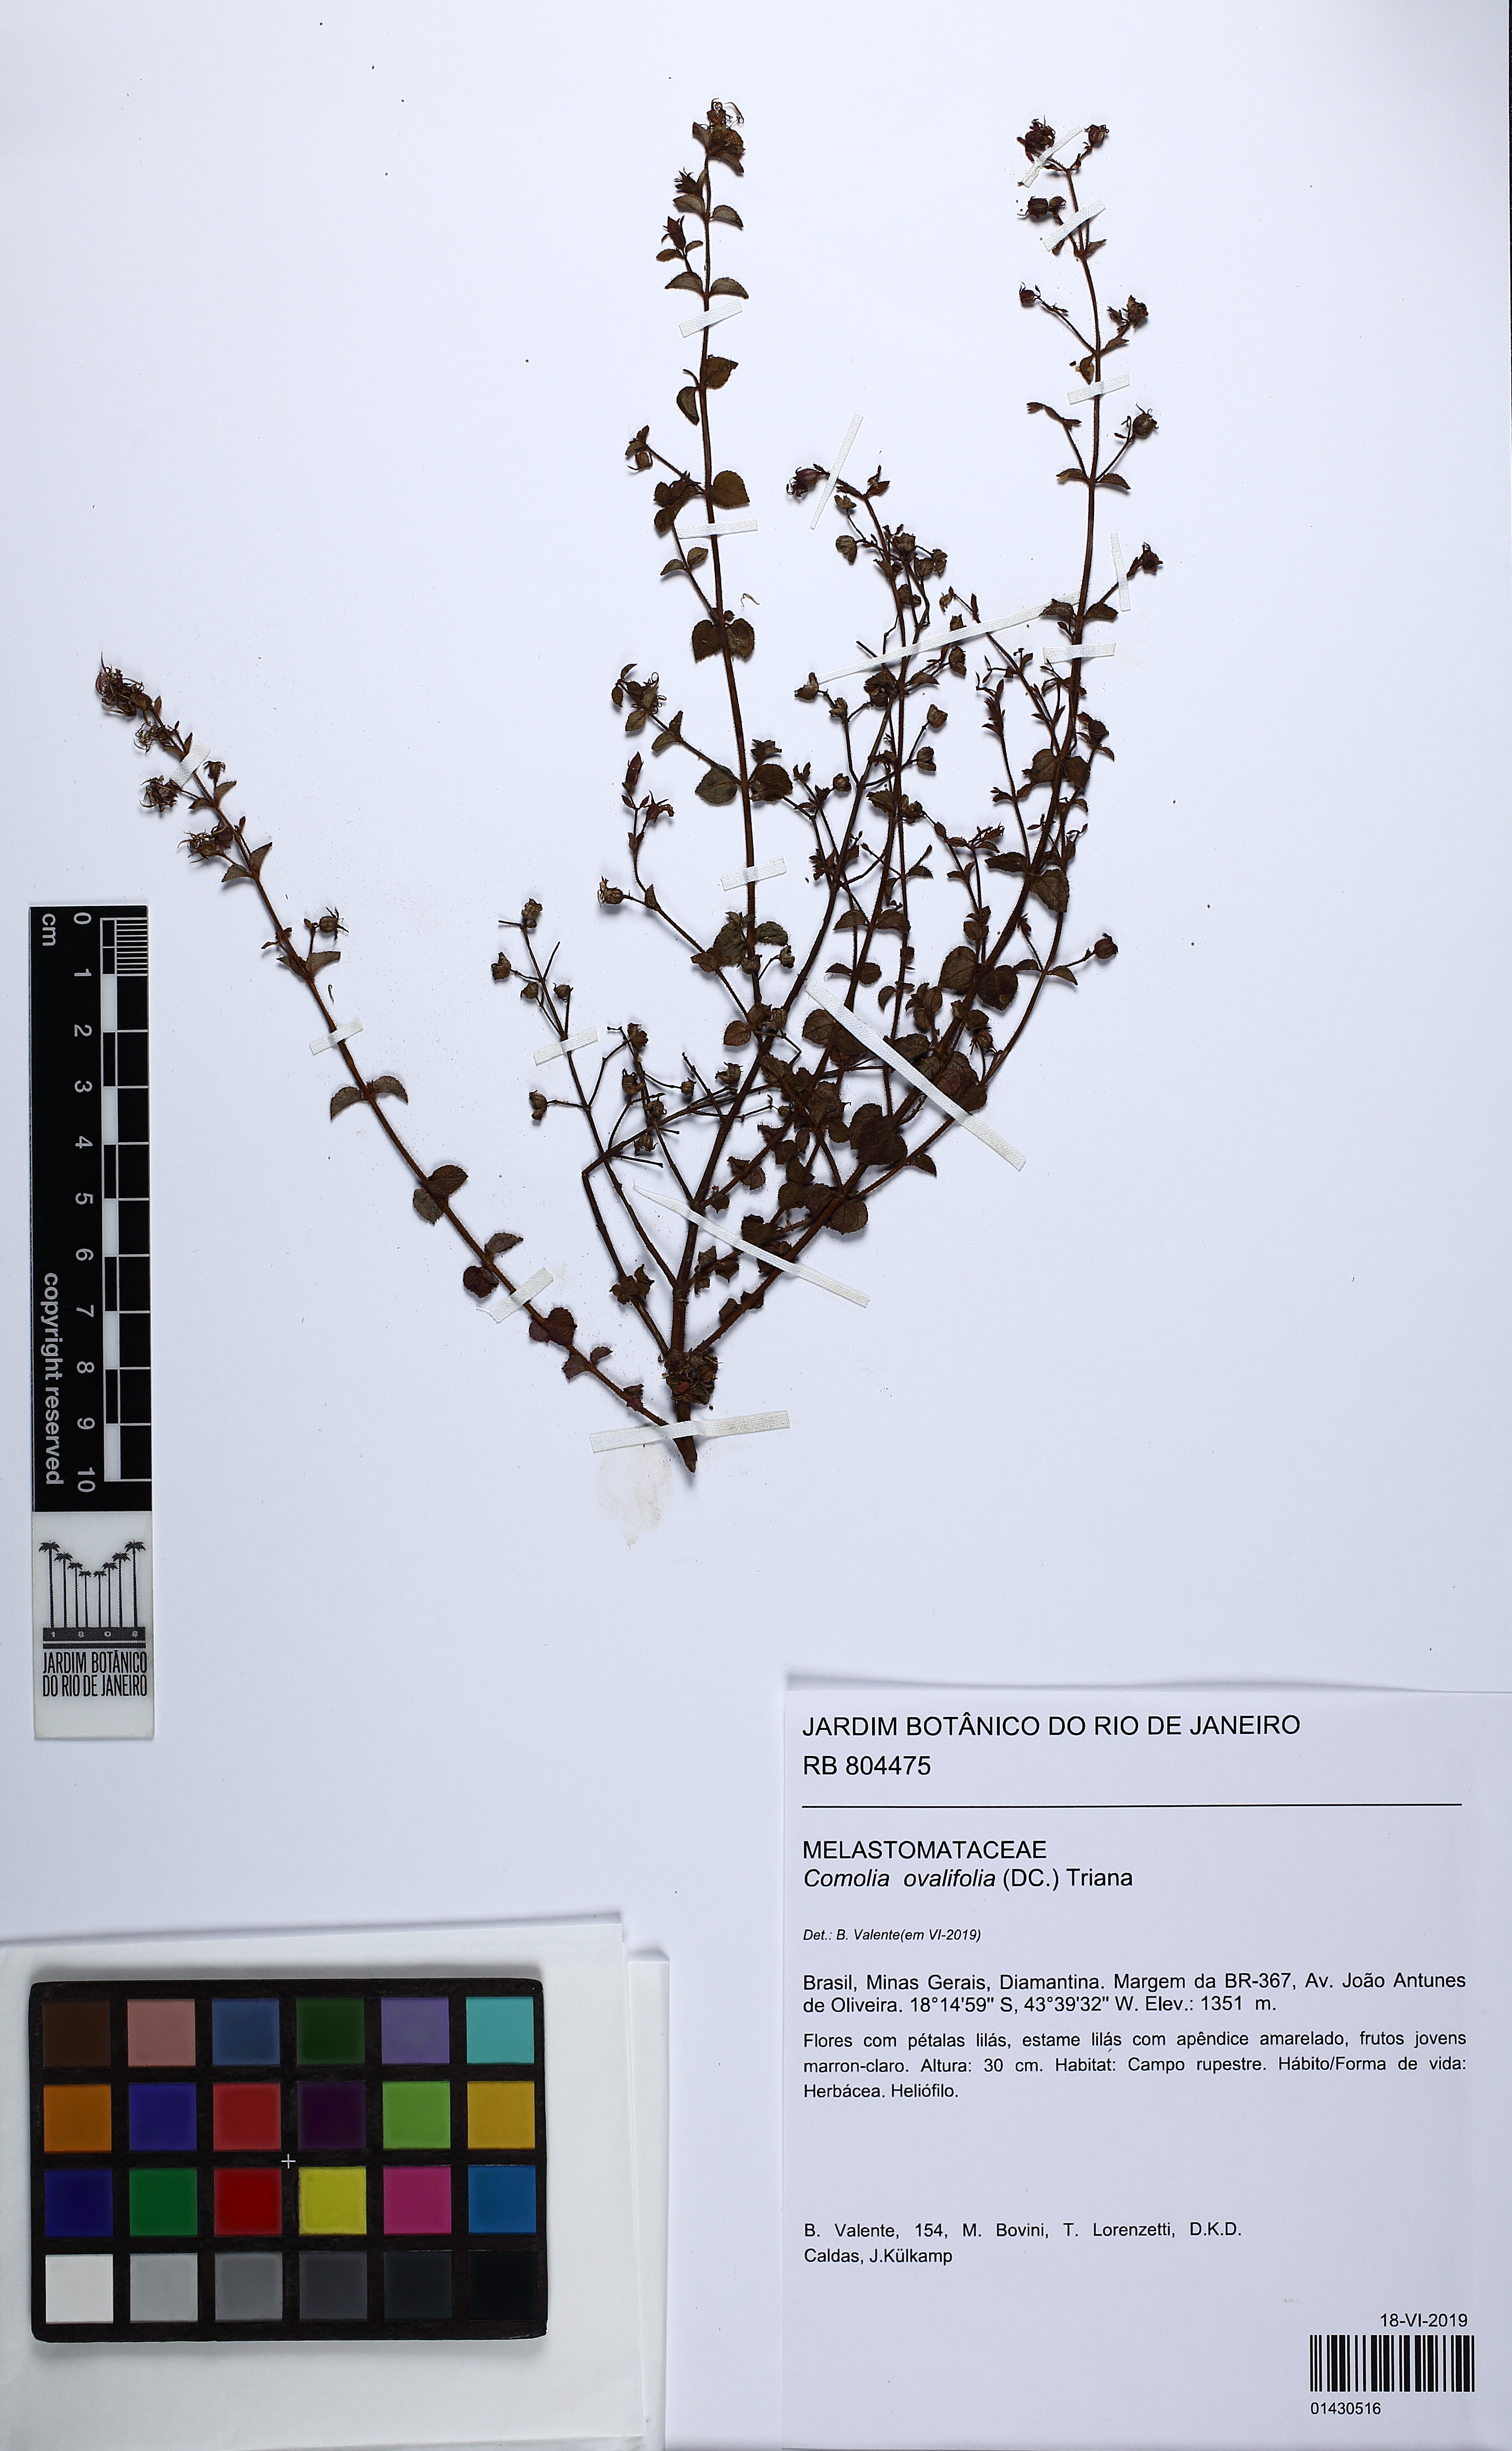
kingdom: Plantae
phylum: Tracheophyta
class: Magnoliopsida
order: Myrtales
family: Melastomataceae
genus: Acisanthera
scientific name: Acisanthera variabilis
